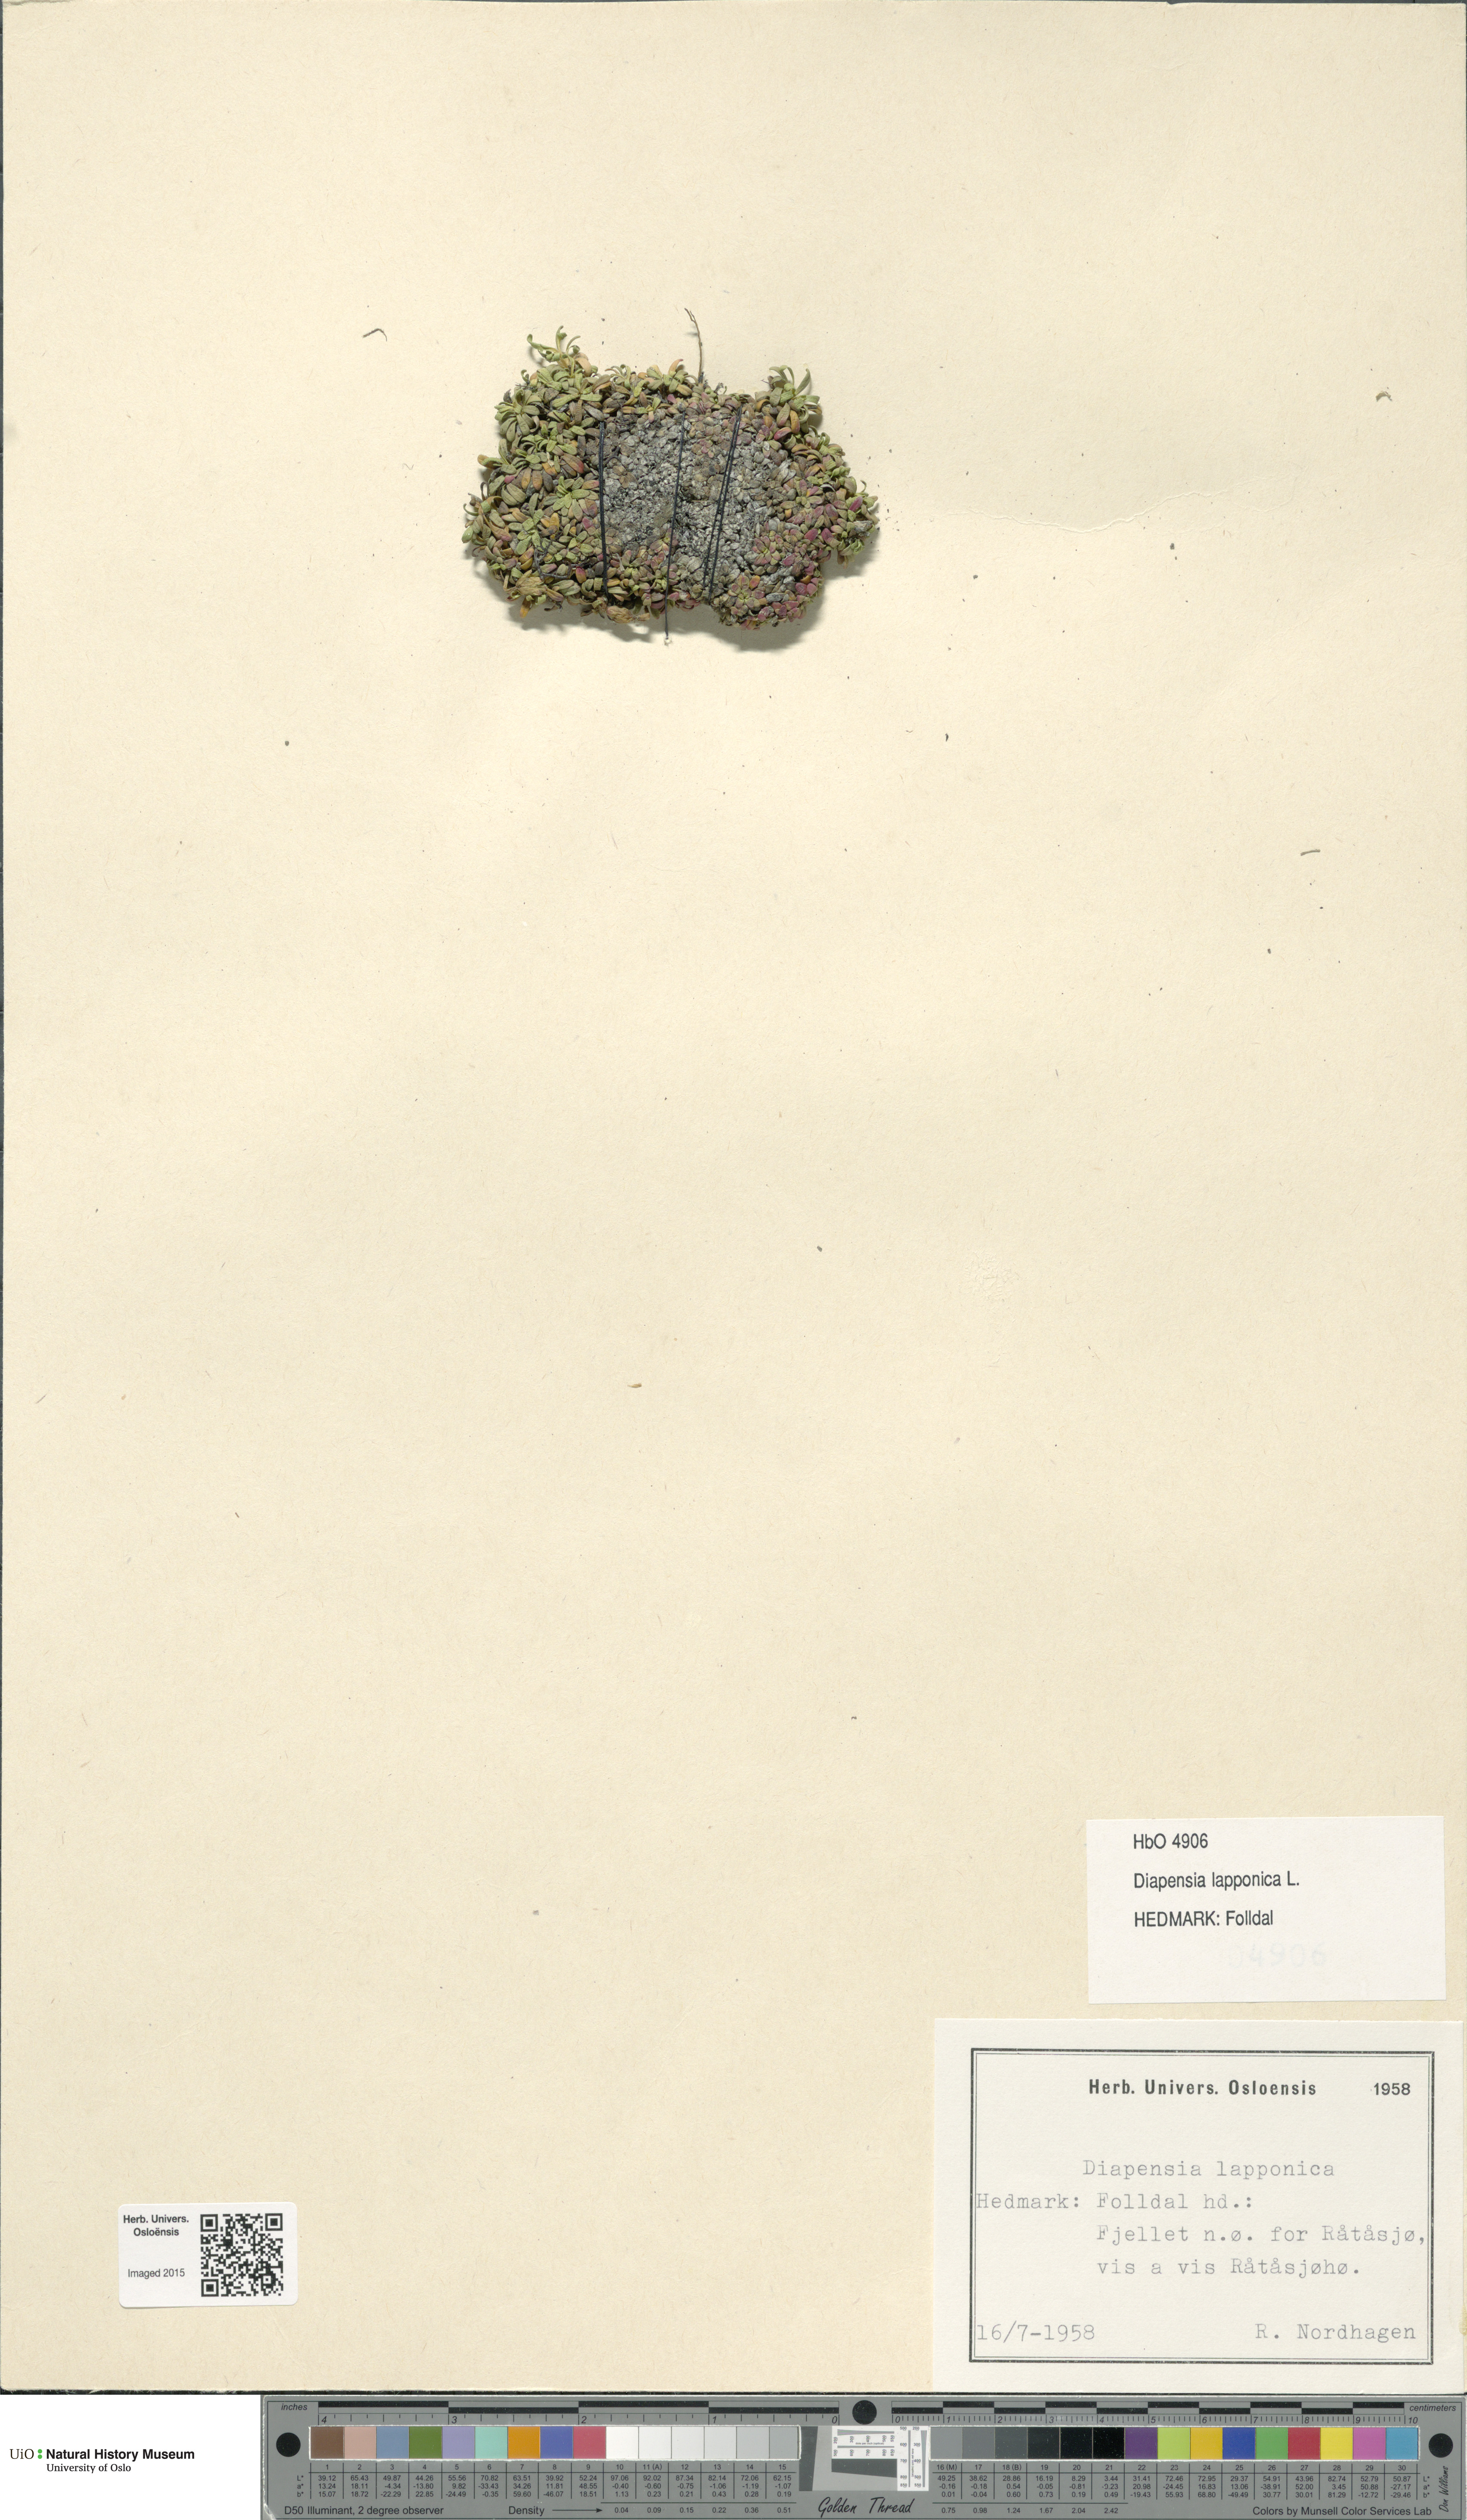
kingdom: Plantae
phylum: Tracheophyta
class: Magnoliopsida
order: Ericales
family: Diapensiaceae
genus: Diapensia
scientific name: Diapensia lapponica
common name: Diapensia
